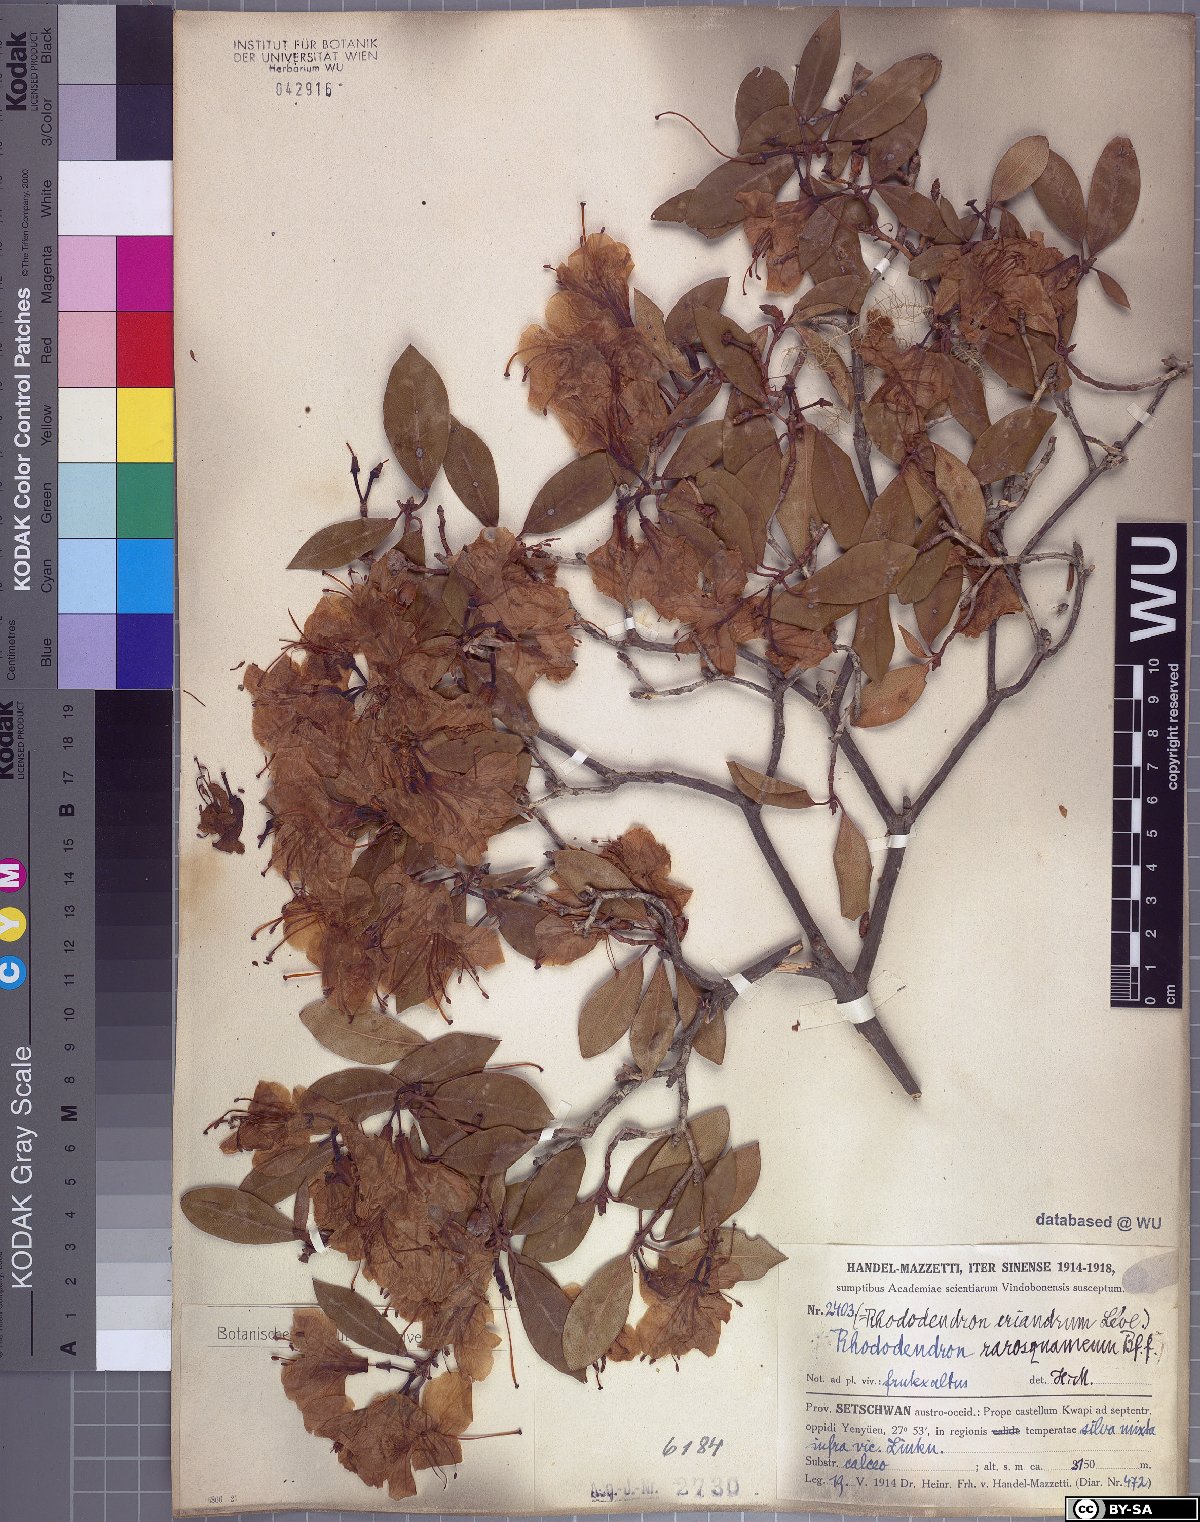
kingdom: Plantae
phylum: Tracheophyta
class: Magnoliopsida
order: Ericales
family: Ericaceae
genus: Rhododendron
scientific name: Rhododendron rigidum
